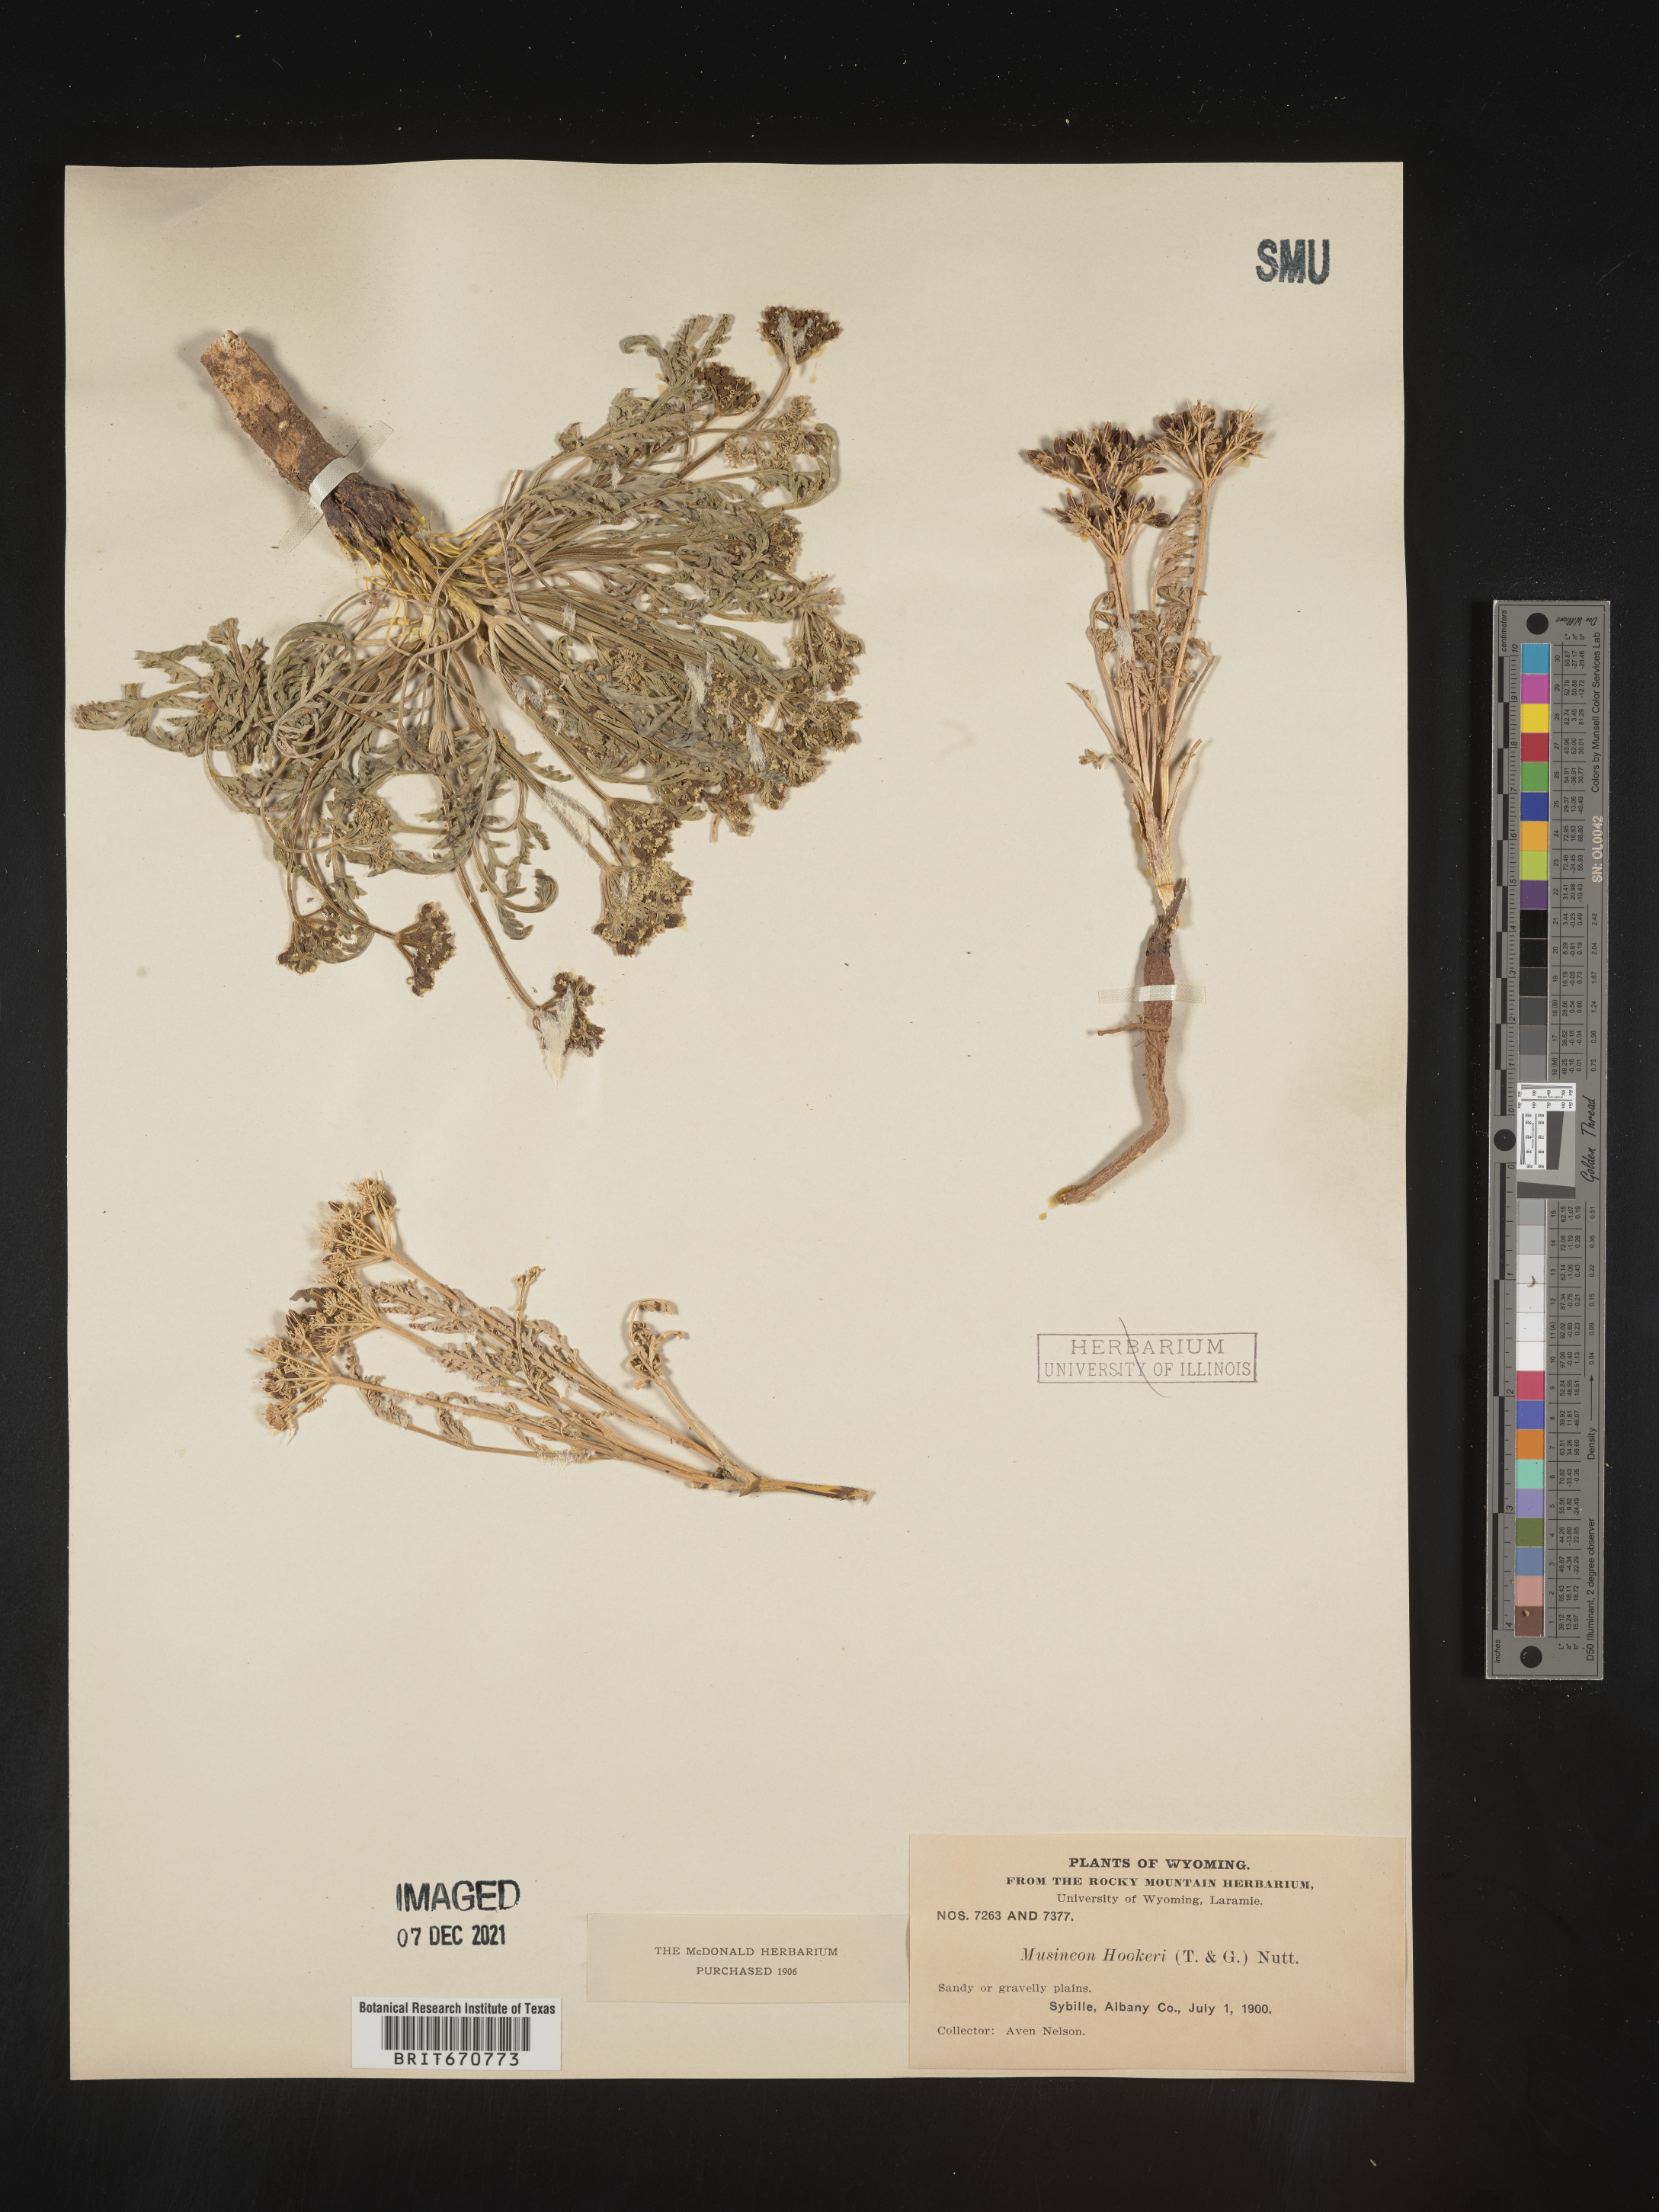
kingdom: Plantae
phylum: Tracheophyta
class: Magnoliopsida
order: Apiales
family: Apiaceae
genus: Musineon
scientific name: Musineon
